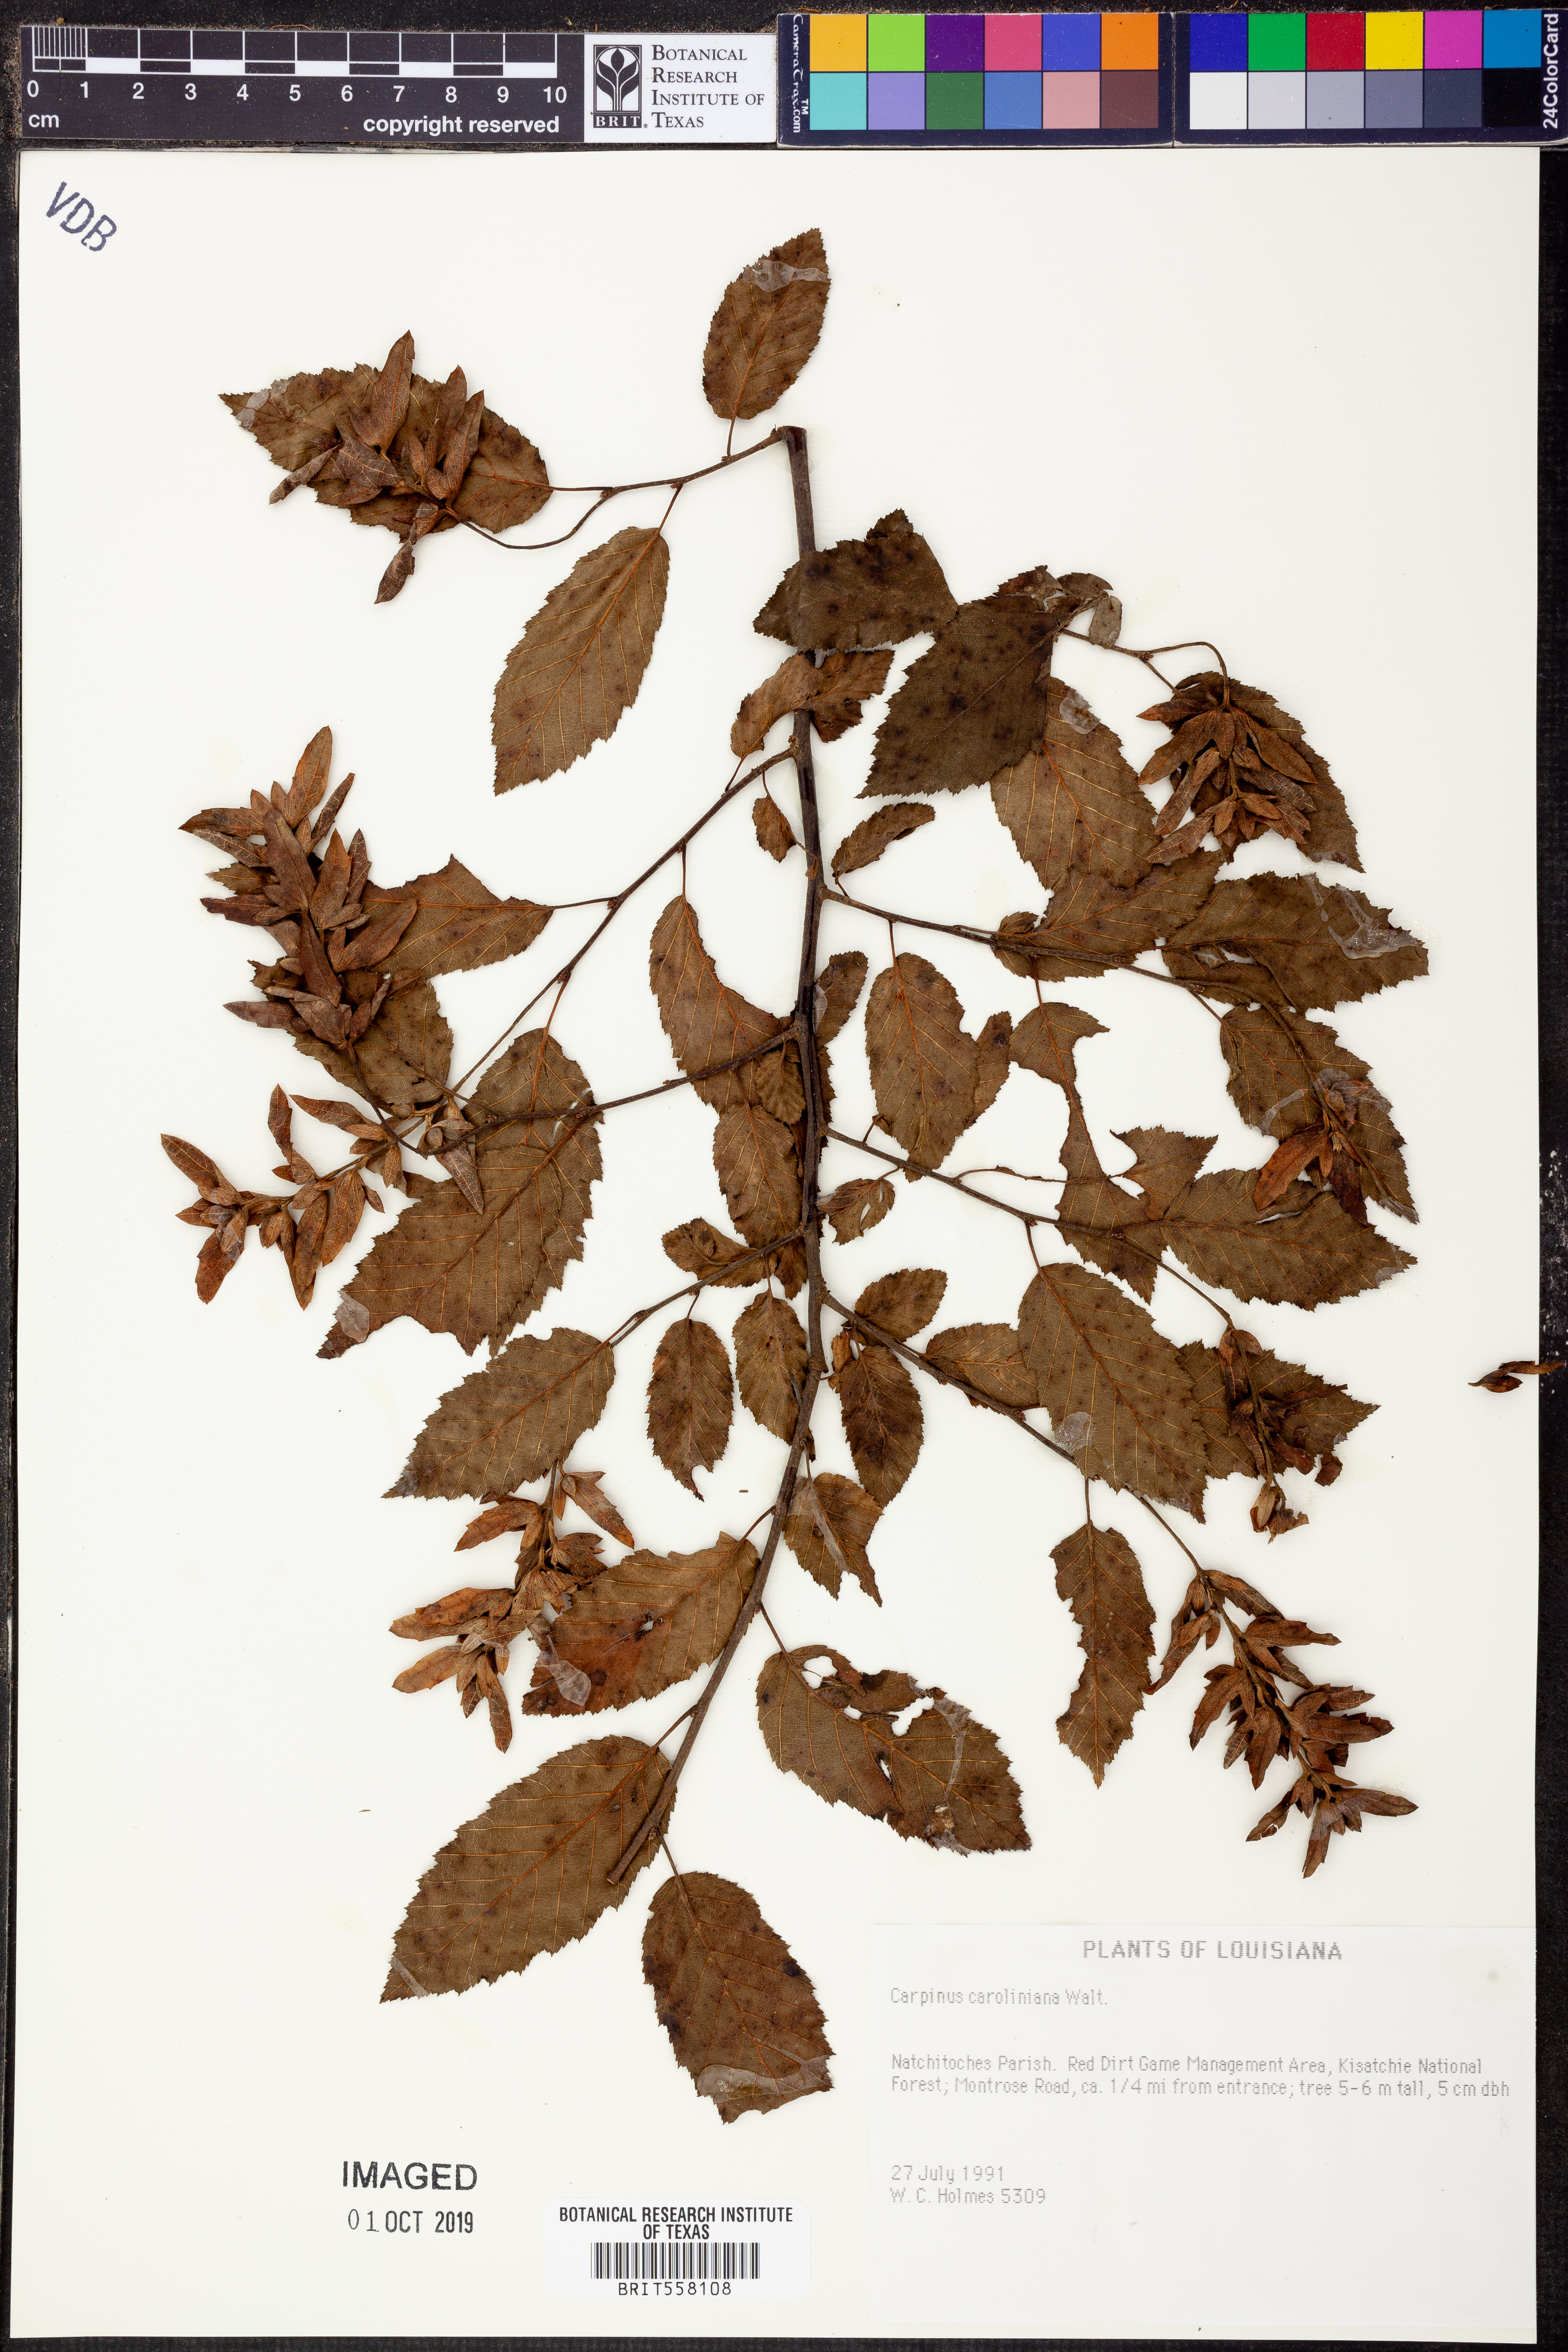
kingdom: Plantae
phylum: Tracheophyta
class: Magnoliopsida
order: Fagales
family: Betulaceae
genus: Carpinus
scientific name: Carpinus caroliniana
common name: American hornbeam
